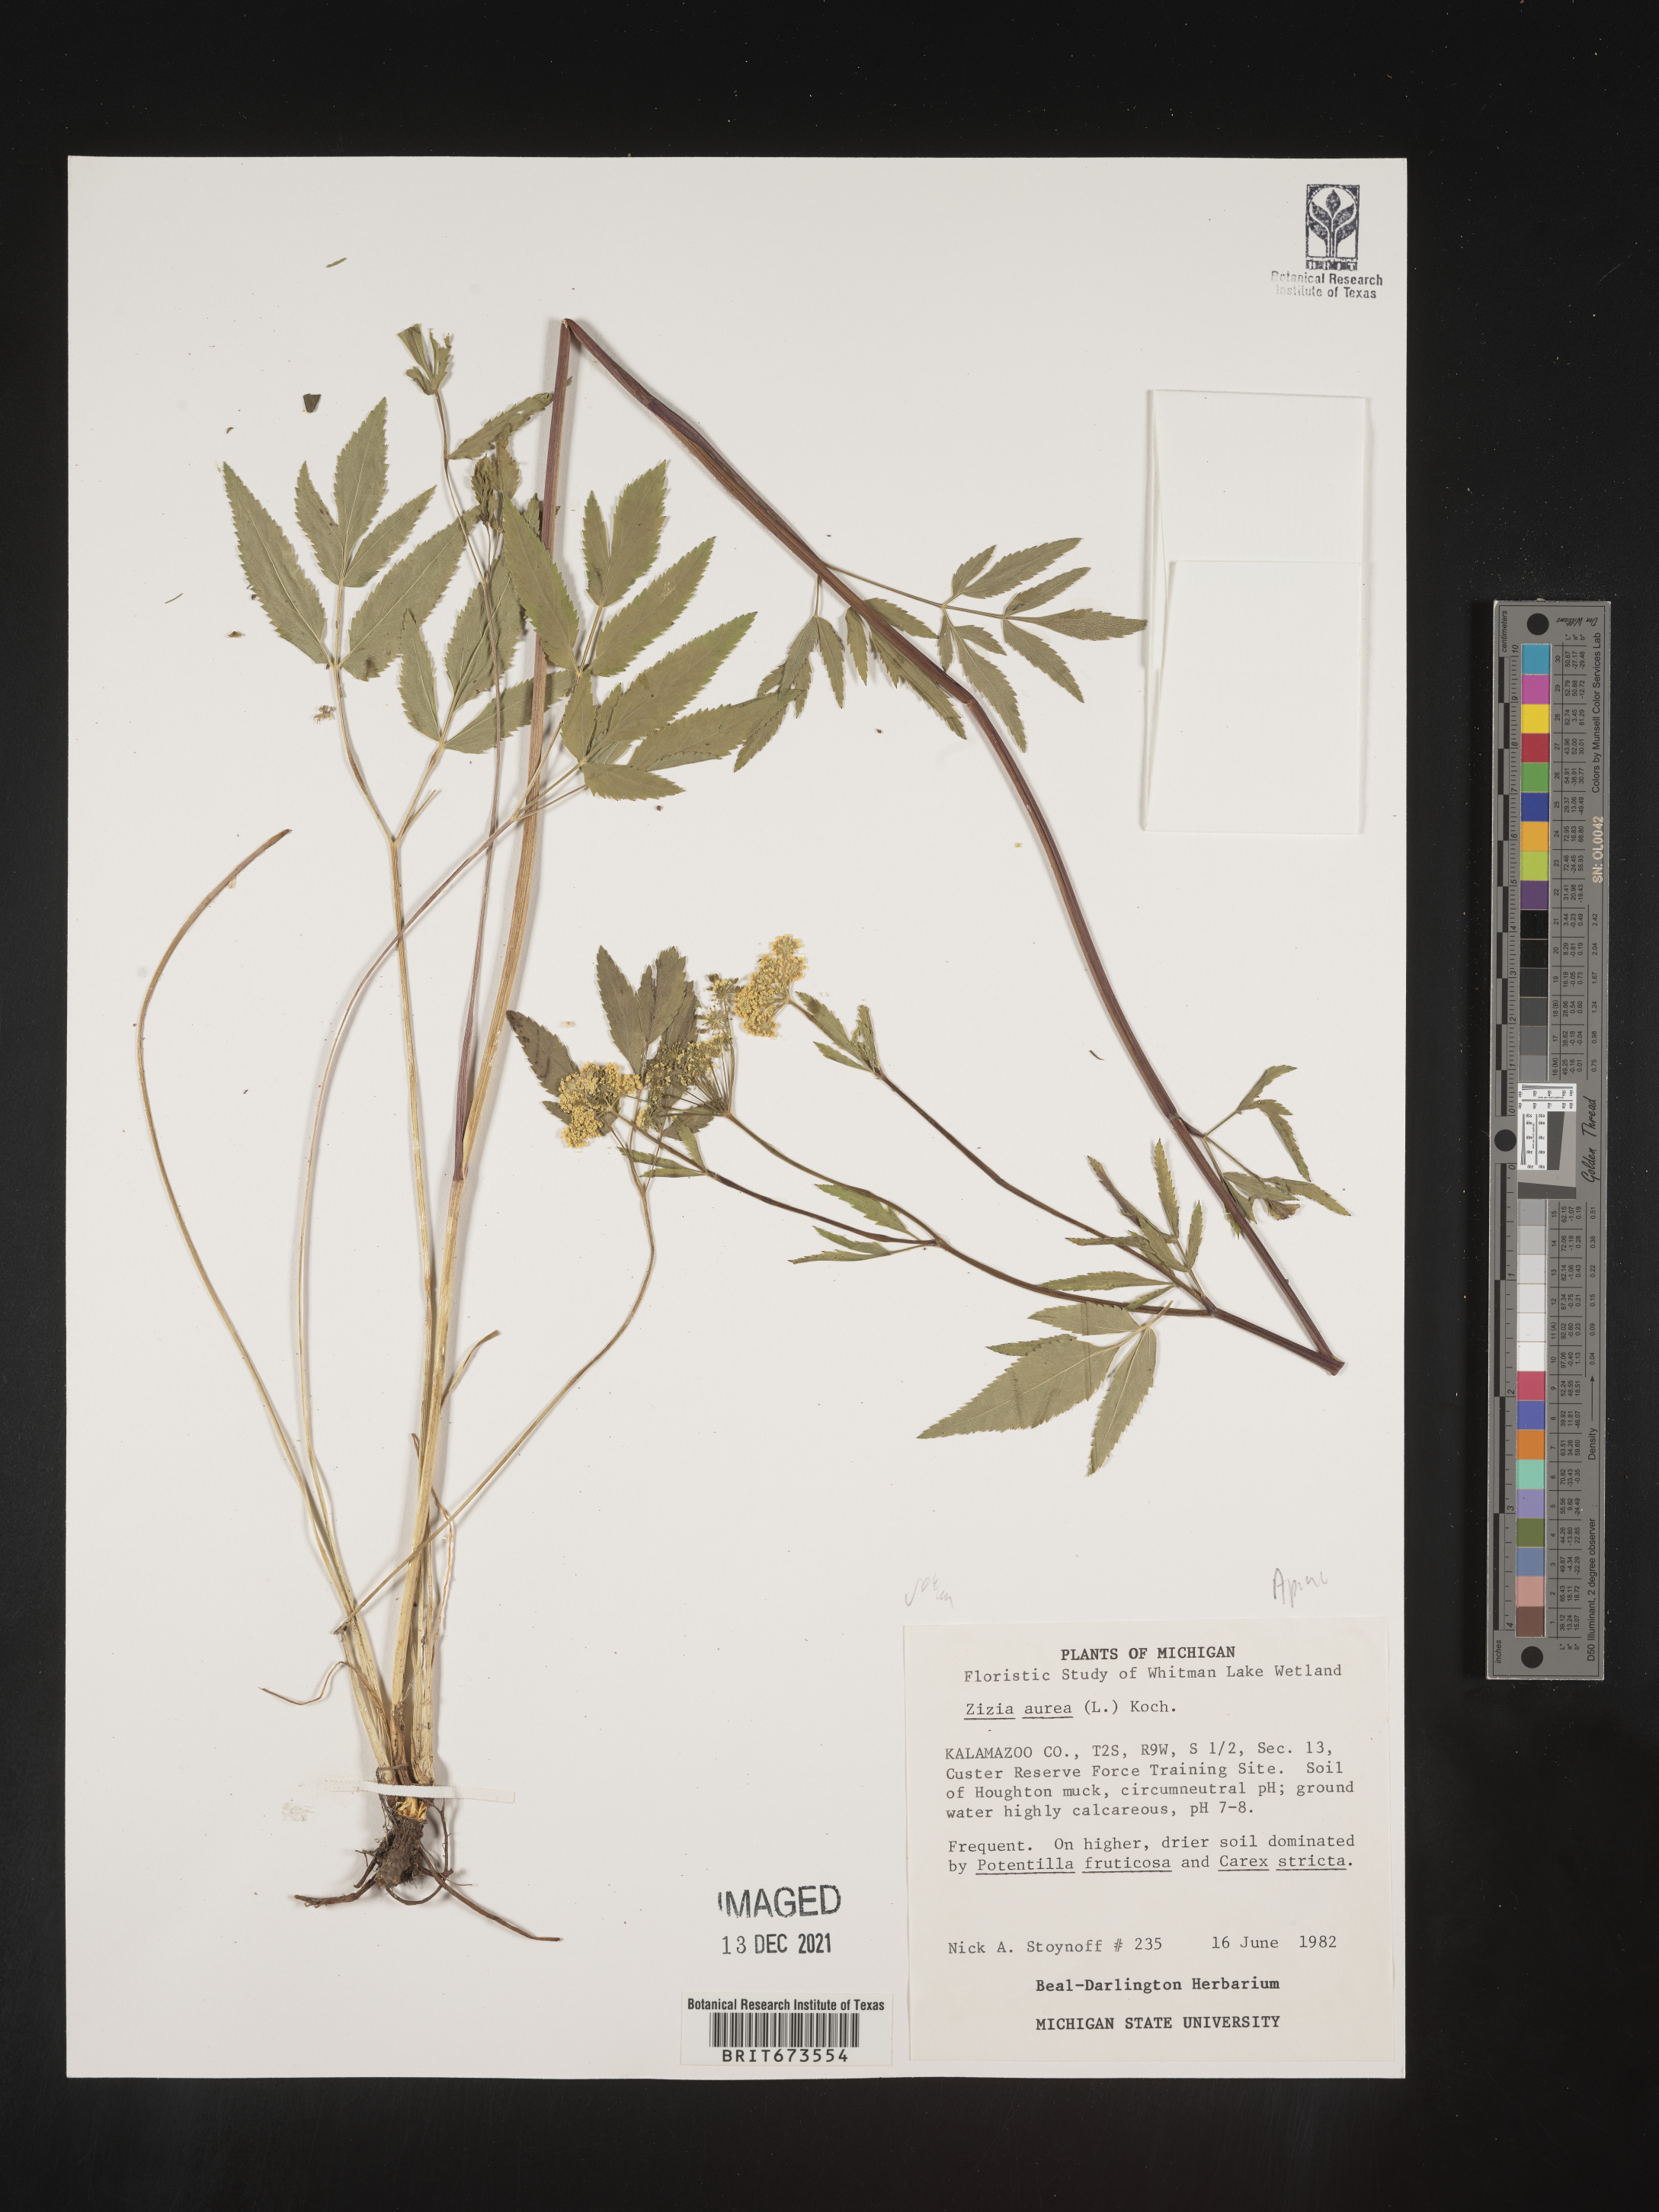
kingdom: Plantae
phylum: Tracheophyta
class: Magnoliopsida
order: Apiales
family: Apiaceae
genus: Zizia
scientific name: Zizia aurea
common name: Golden alexanders
